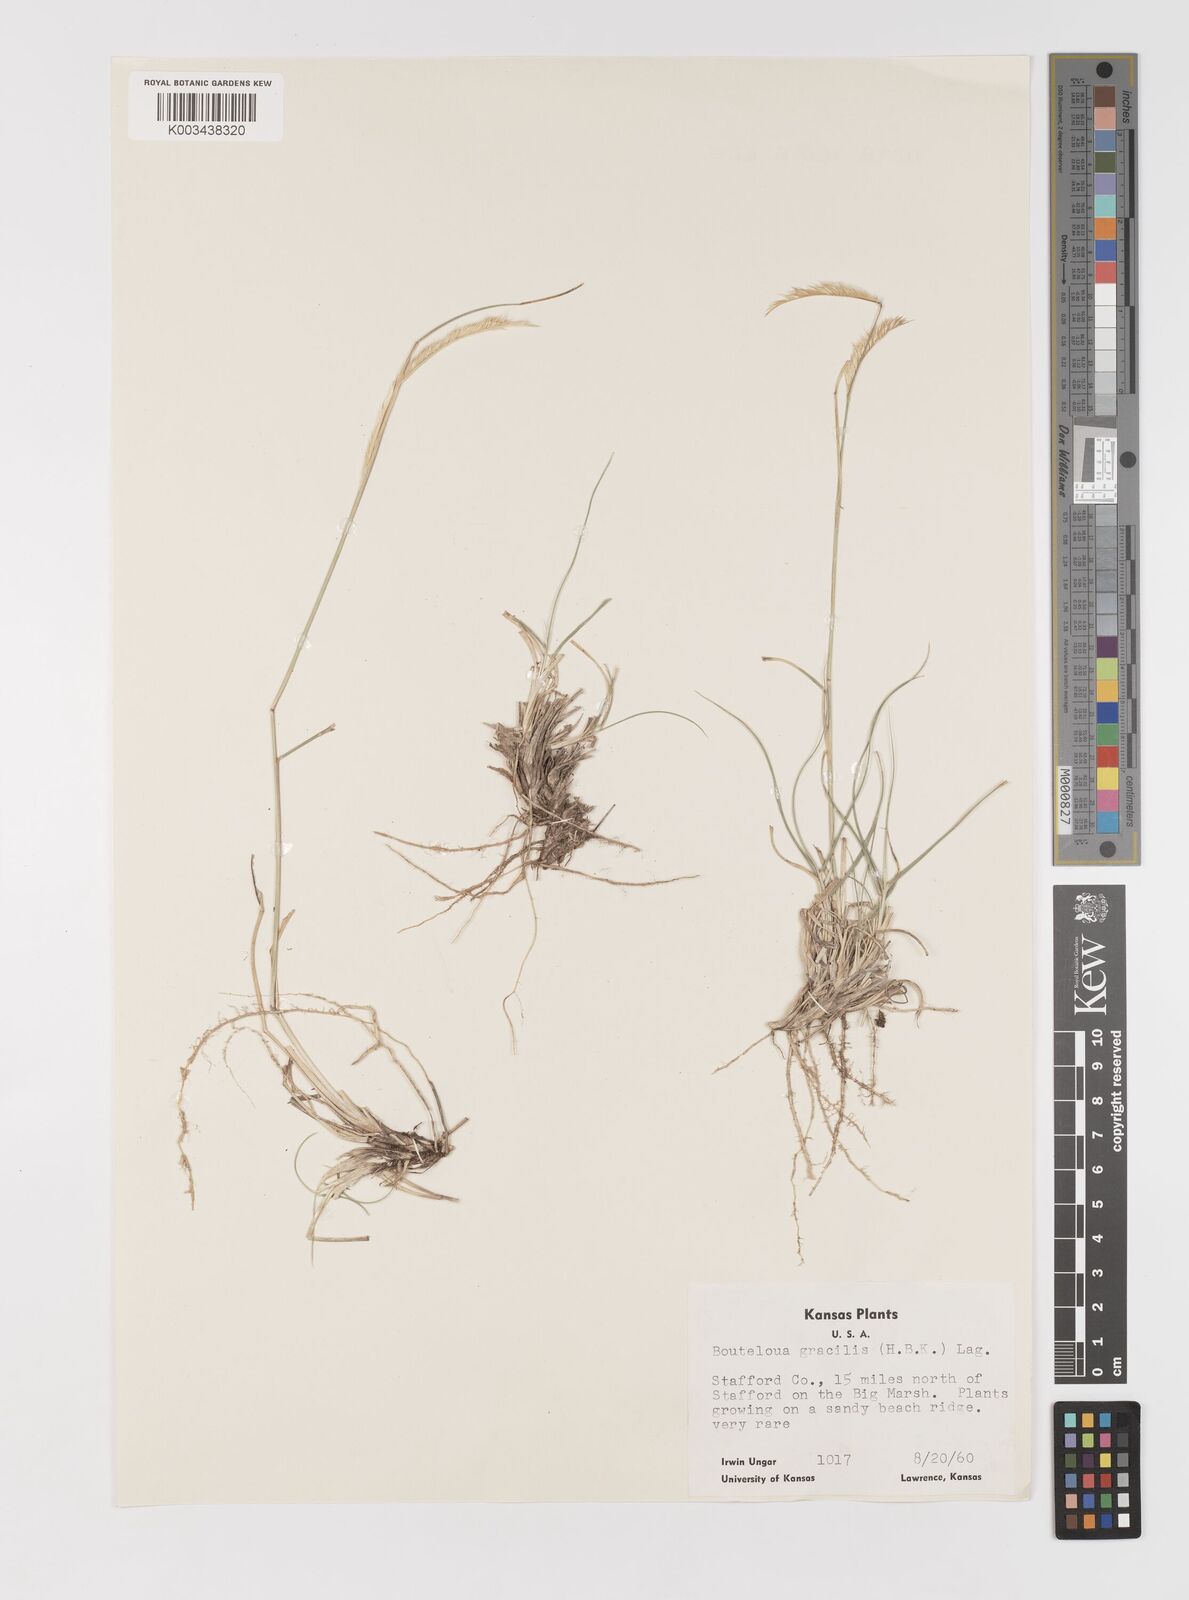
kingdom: Plantae
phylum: Tracheophyta
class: Liliopsida
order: Poales
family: Poaceae
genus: Bouteloua
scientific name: Bouteloua
